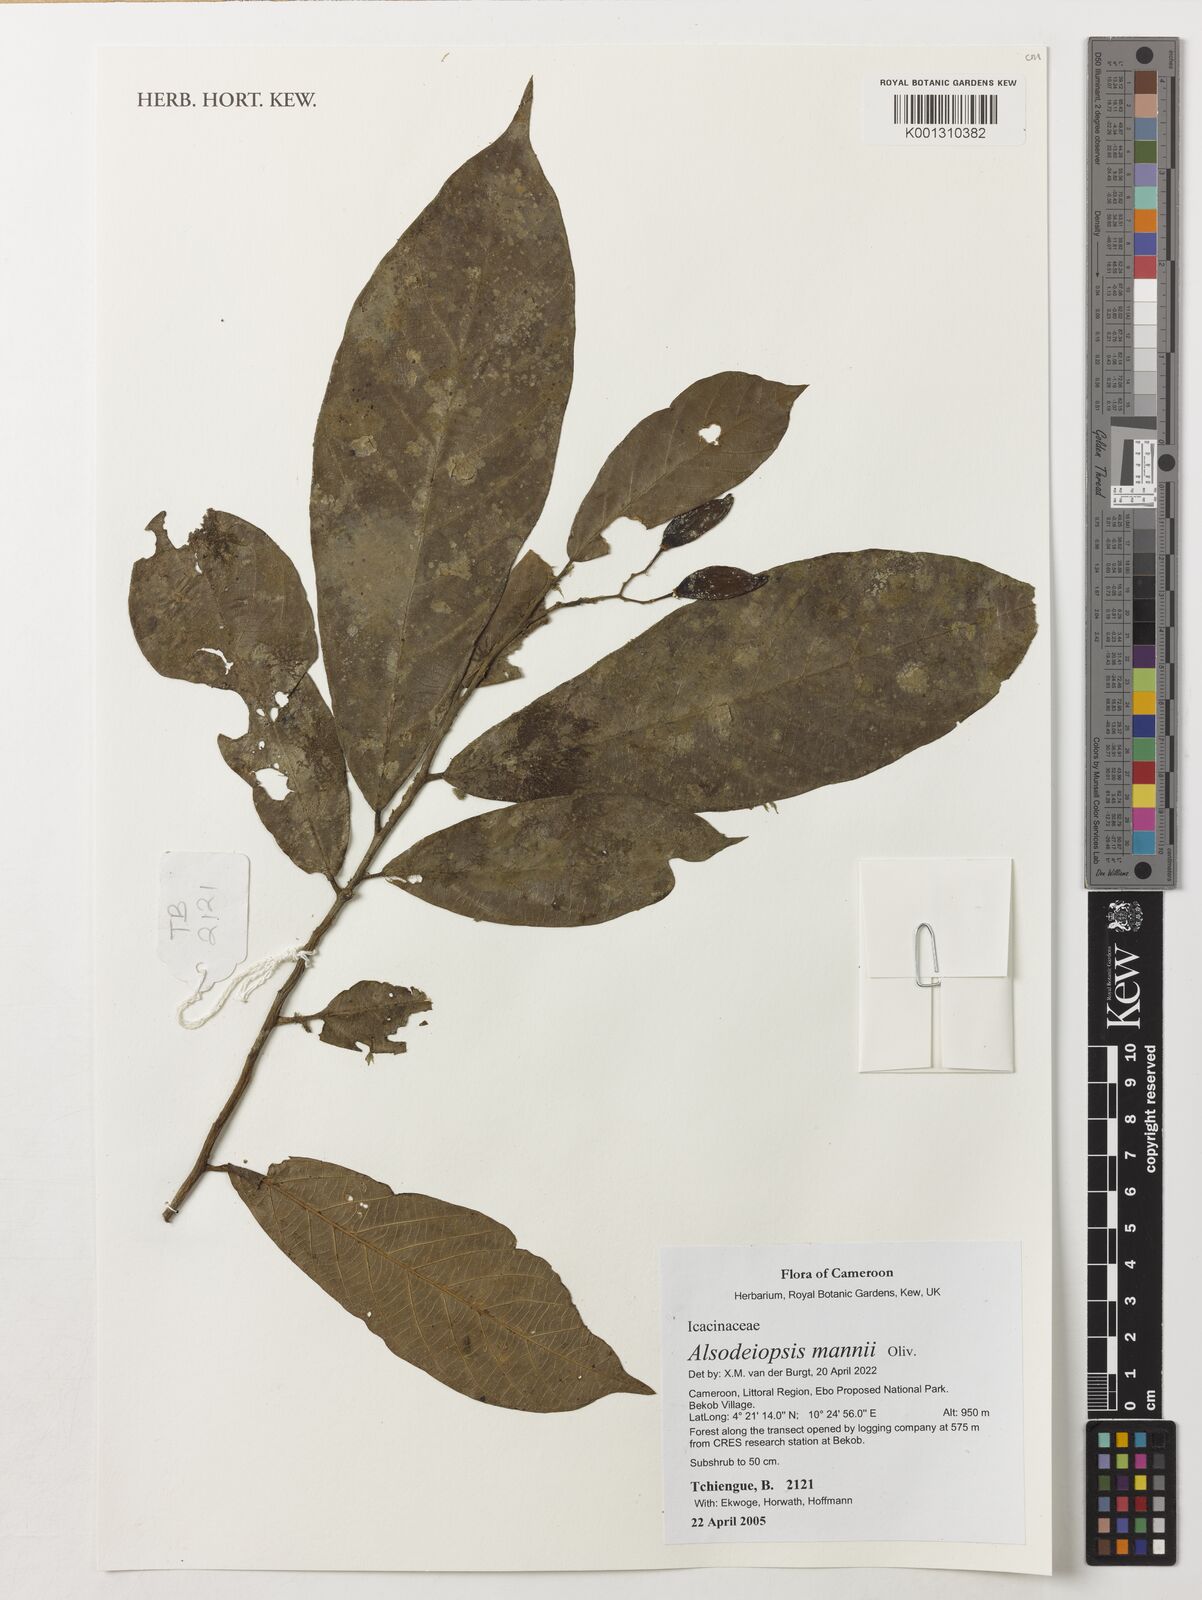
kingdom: Plantae
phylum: Tracheophyta
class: Magnoliopsida
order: Icacinales
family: Icacinaceae
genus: Alsodeiopsis
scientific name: Alsodeiopsis mannii
